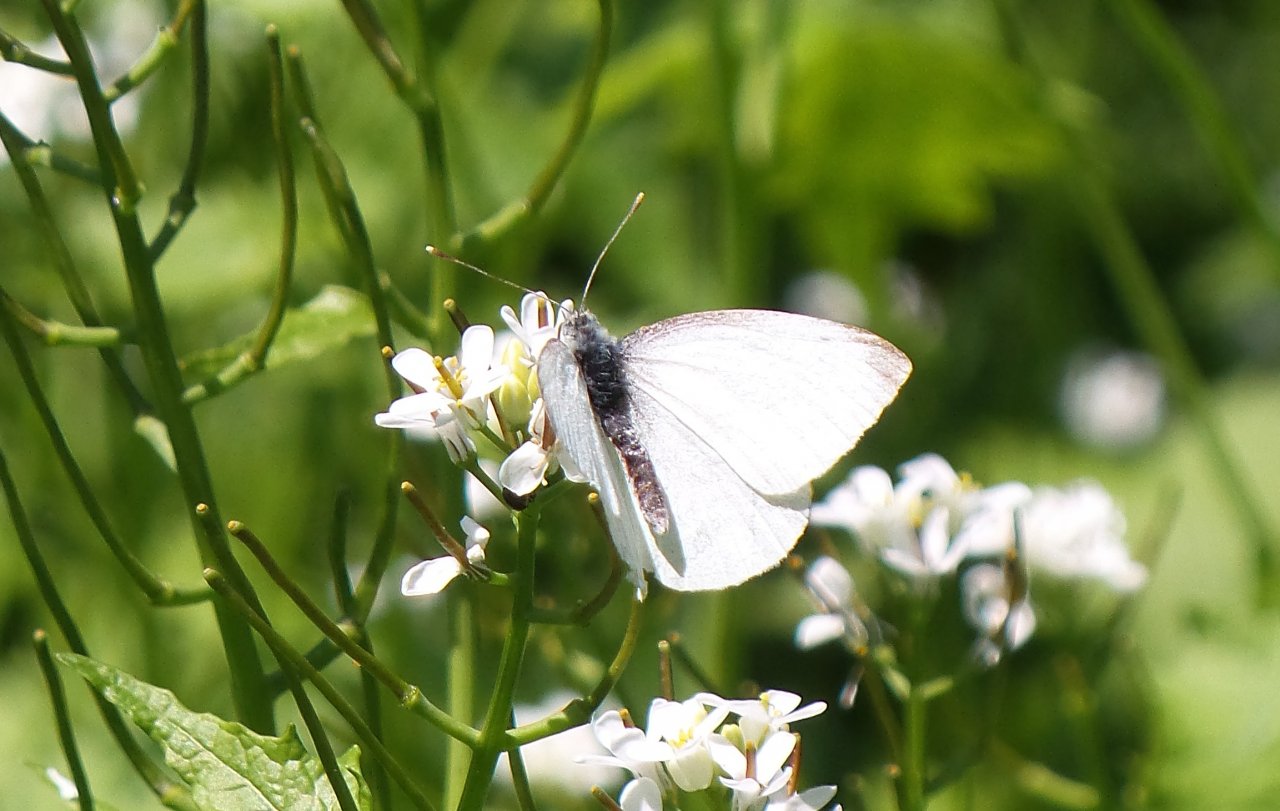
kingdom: Animalia
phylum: Arthropoda
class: Insecta
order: Lepidoptera
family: Pieridae
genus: Pieris
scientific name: Pieris oleracea
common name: Mustard White
